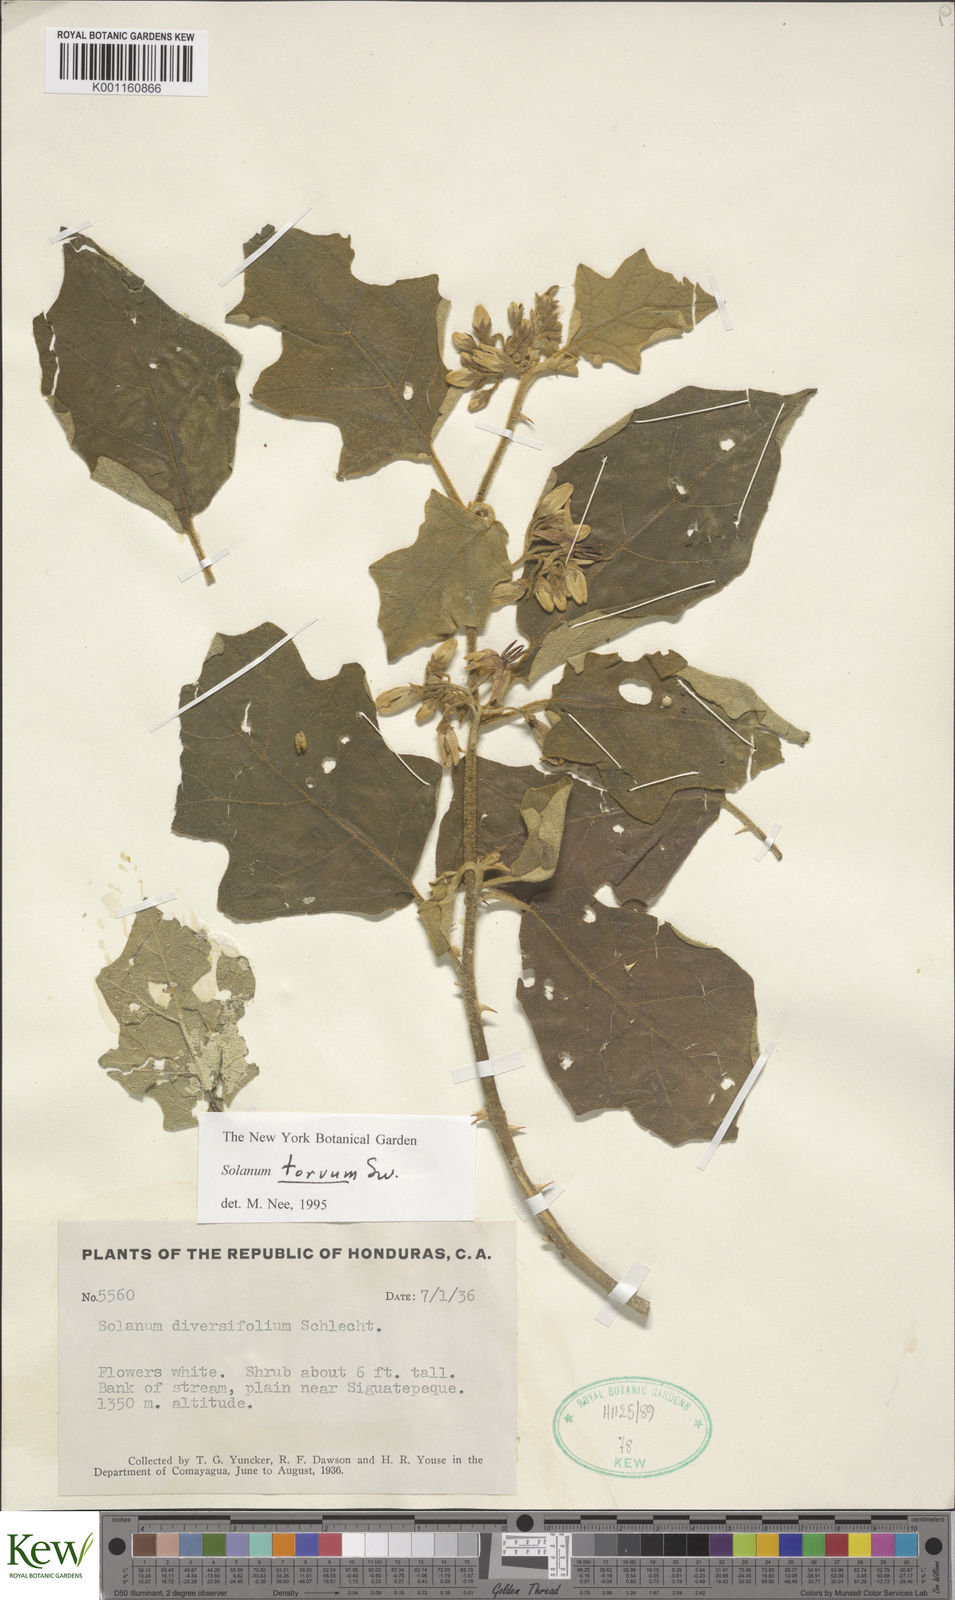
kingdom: Plantae
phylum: Tracheophyta
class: Magnoliopsida
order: Solanales
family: Solanaceae
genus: Solanum
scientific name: Solanum torvum
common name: Turkey berry
